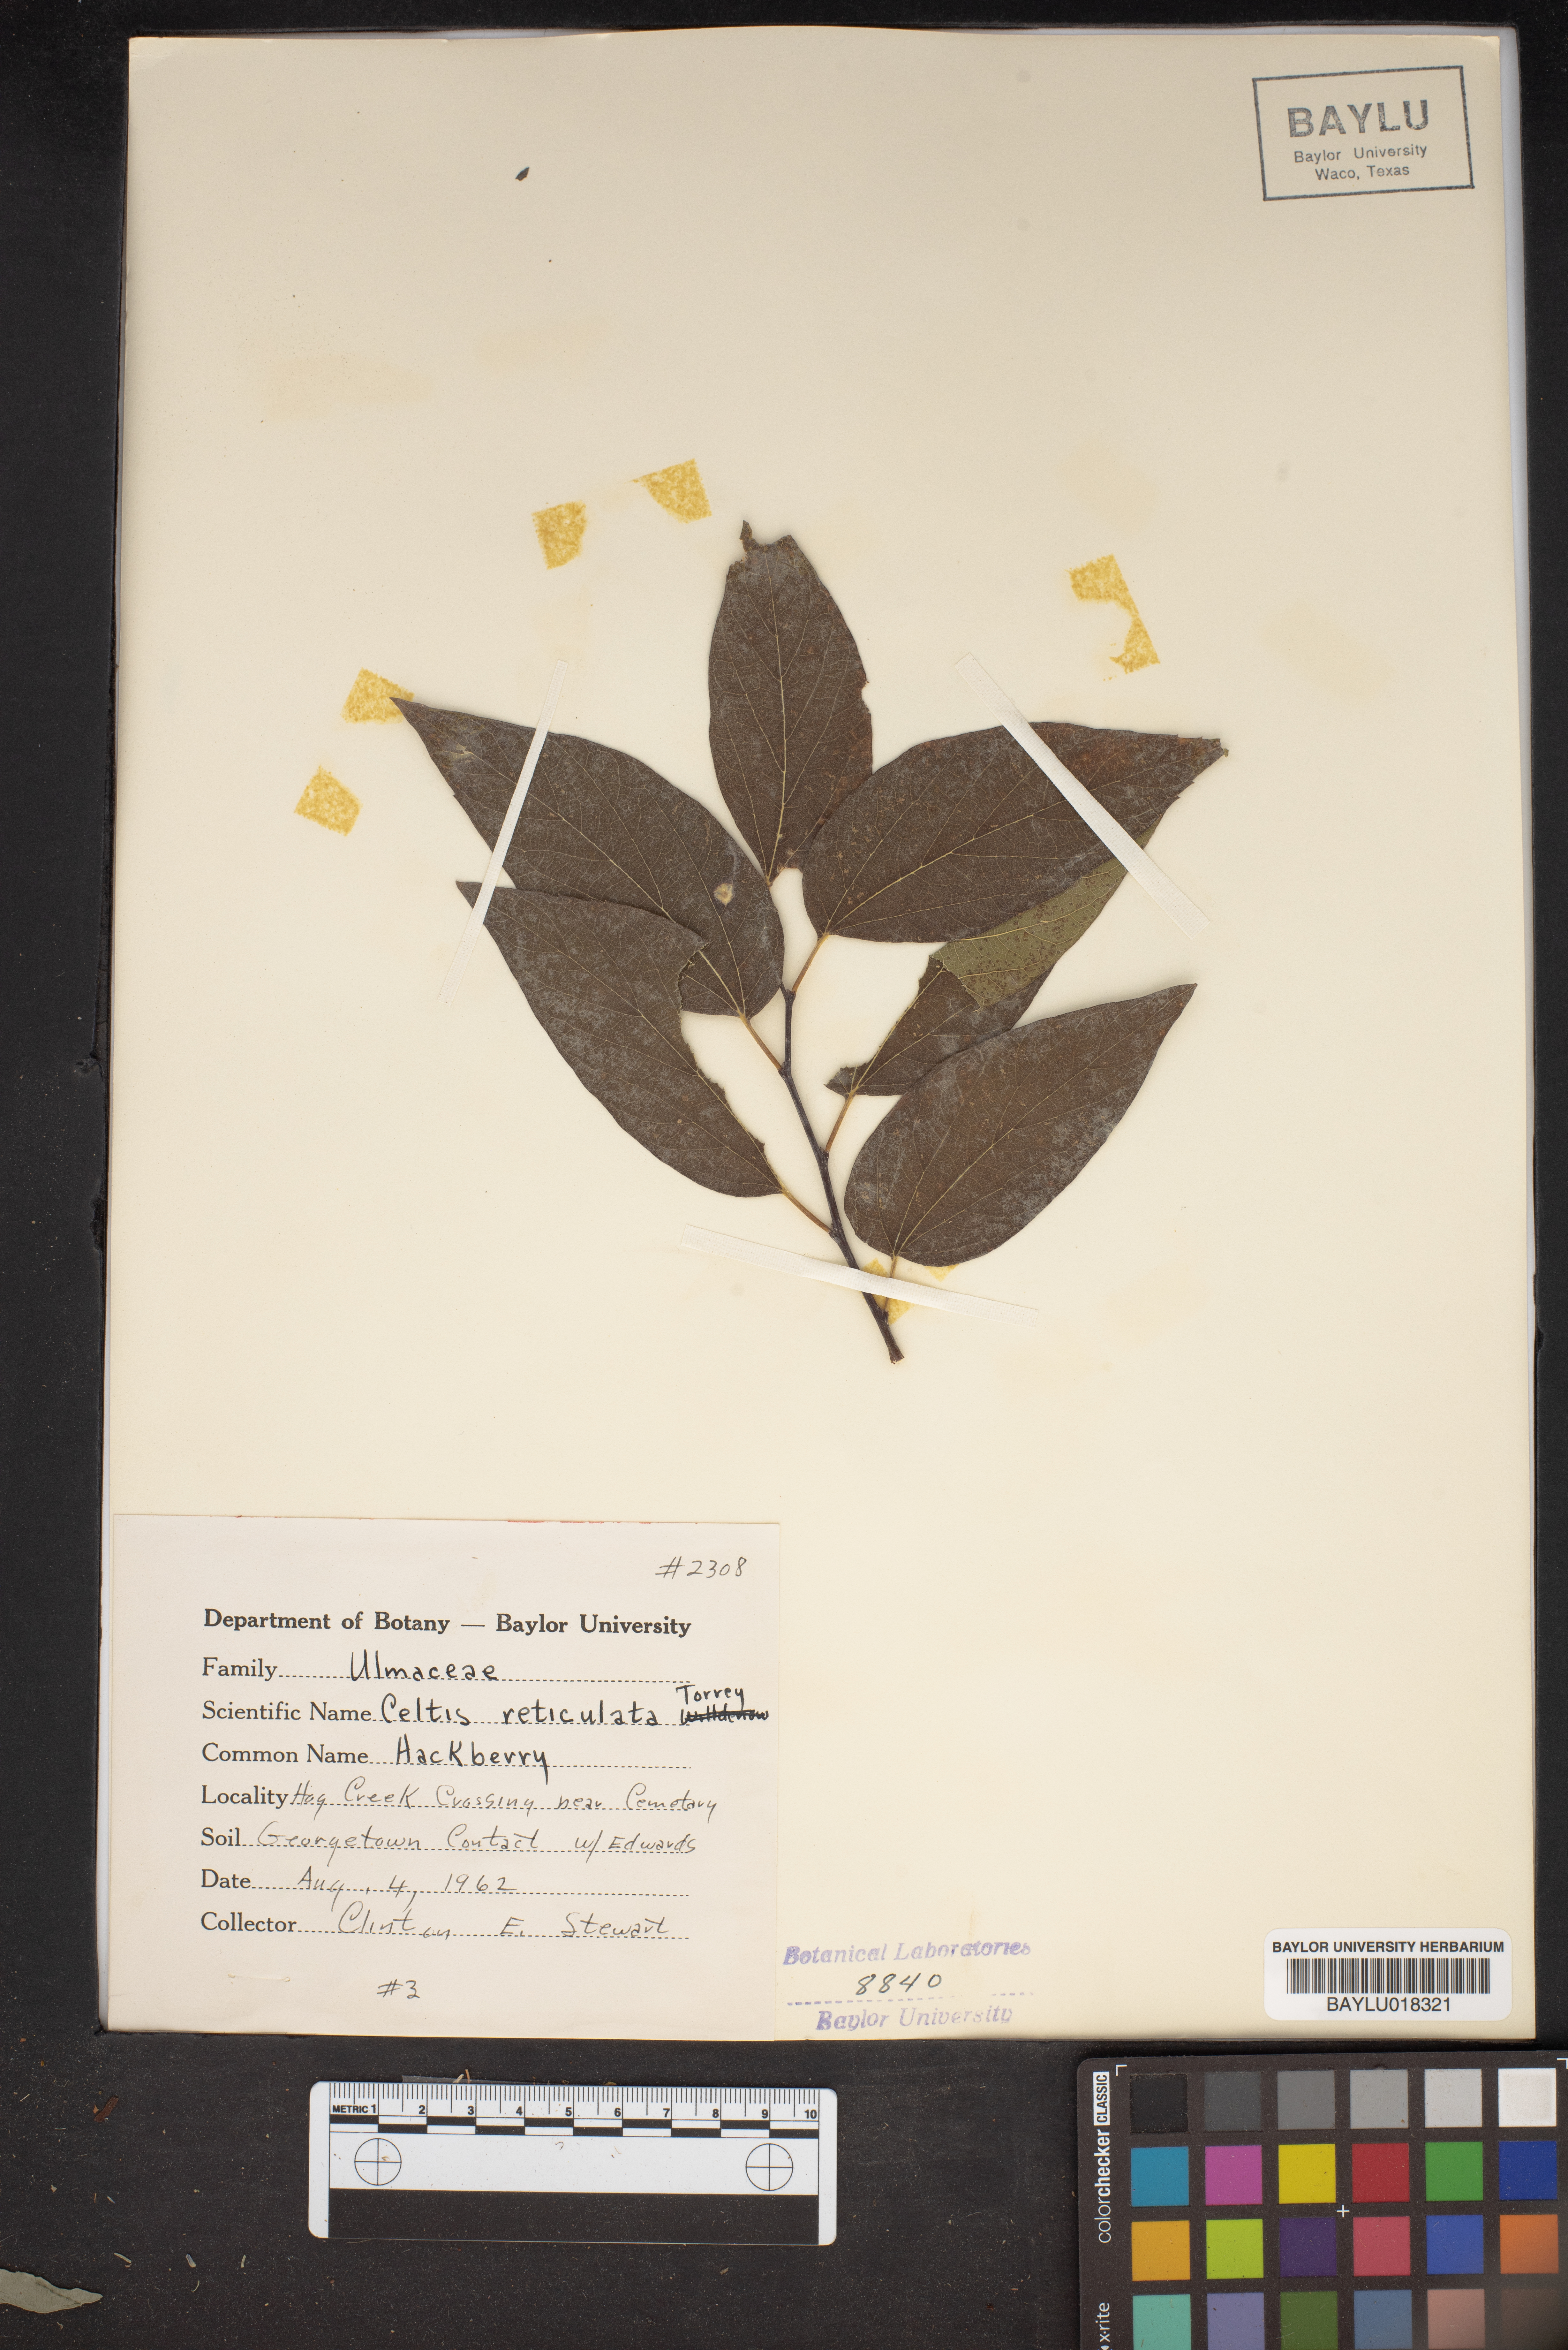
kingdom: Plantae
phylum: Tracheophyta
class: Magnoliopsida
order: Rosales
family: Cannabaceae
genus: Celtis
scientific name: Celtis reticulata
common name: Netleaf hackberry
